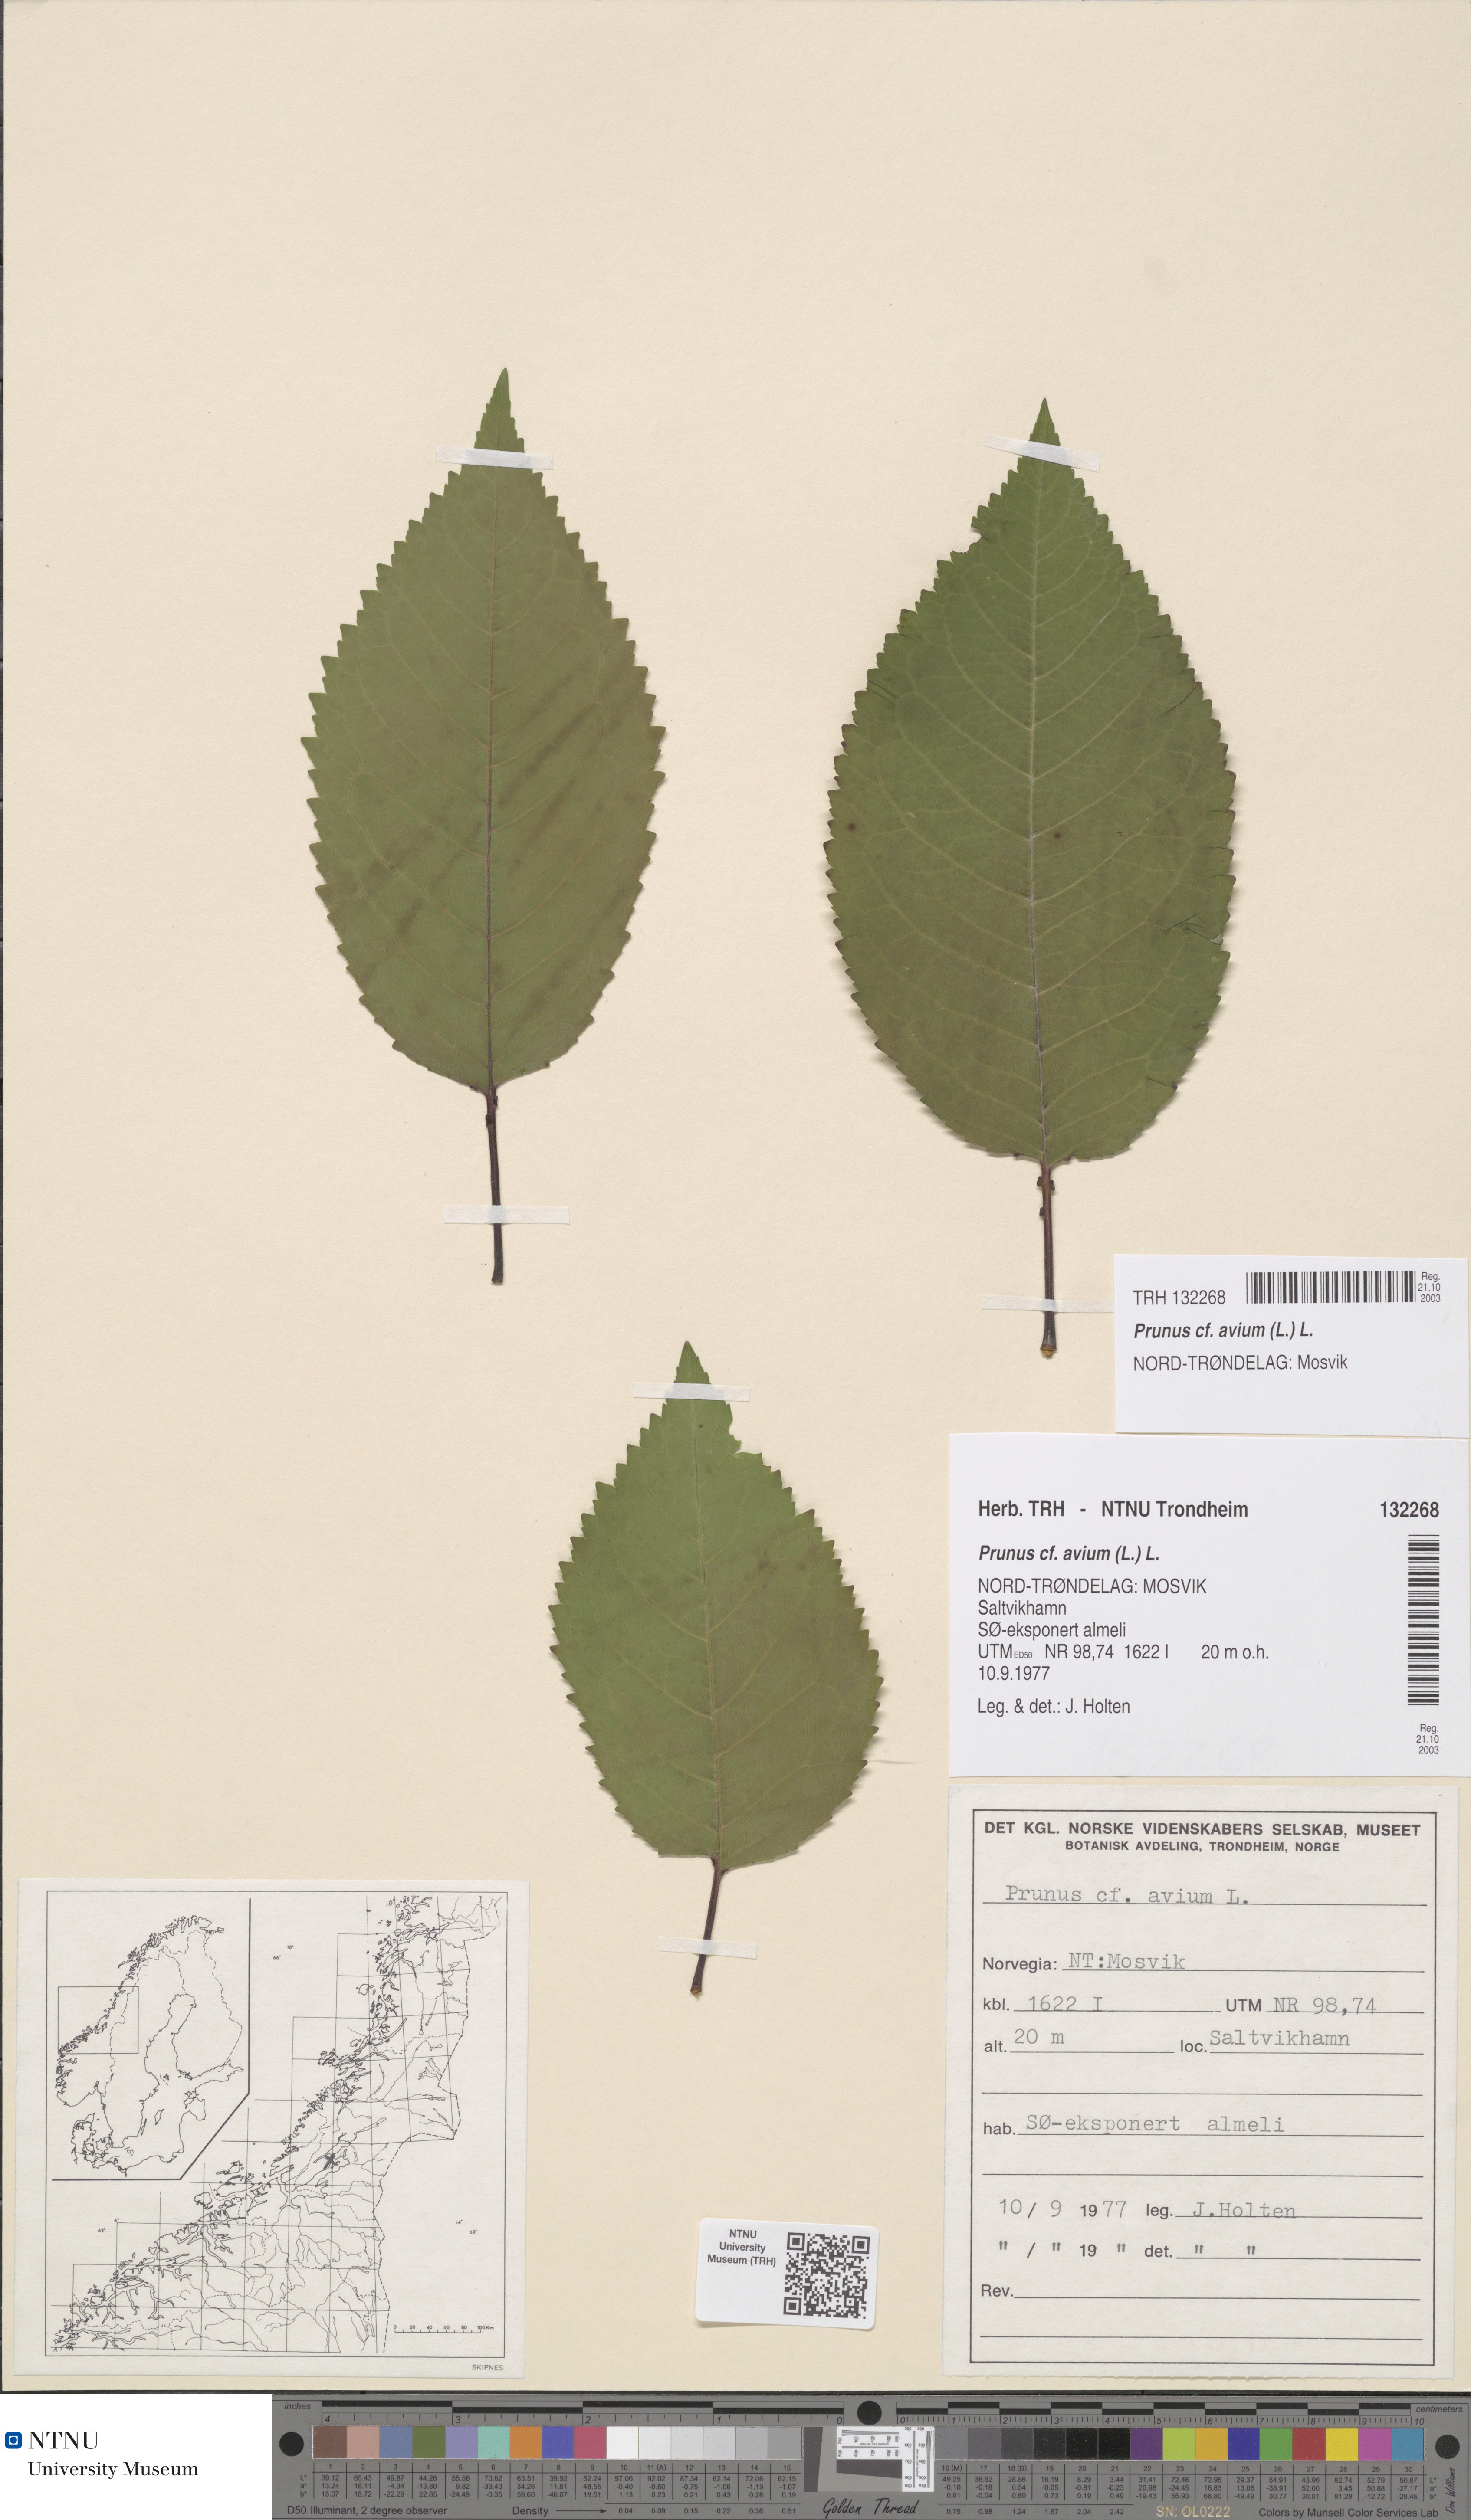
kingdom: Plantae
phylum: Tracheophyta
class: Magnoliopsida
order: Rosales
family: Rosaceae
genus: Prunus
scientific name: Prunus avium
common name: Sweet cherry
